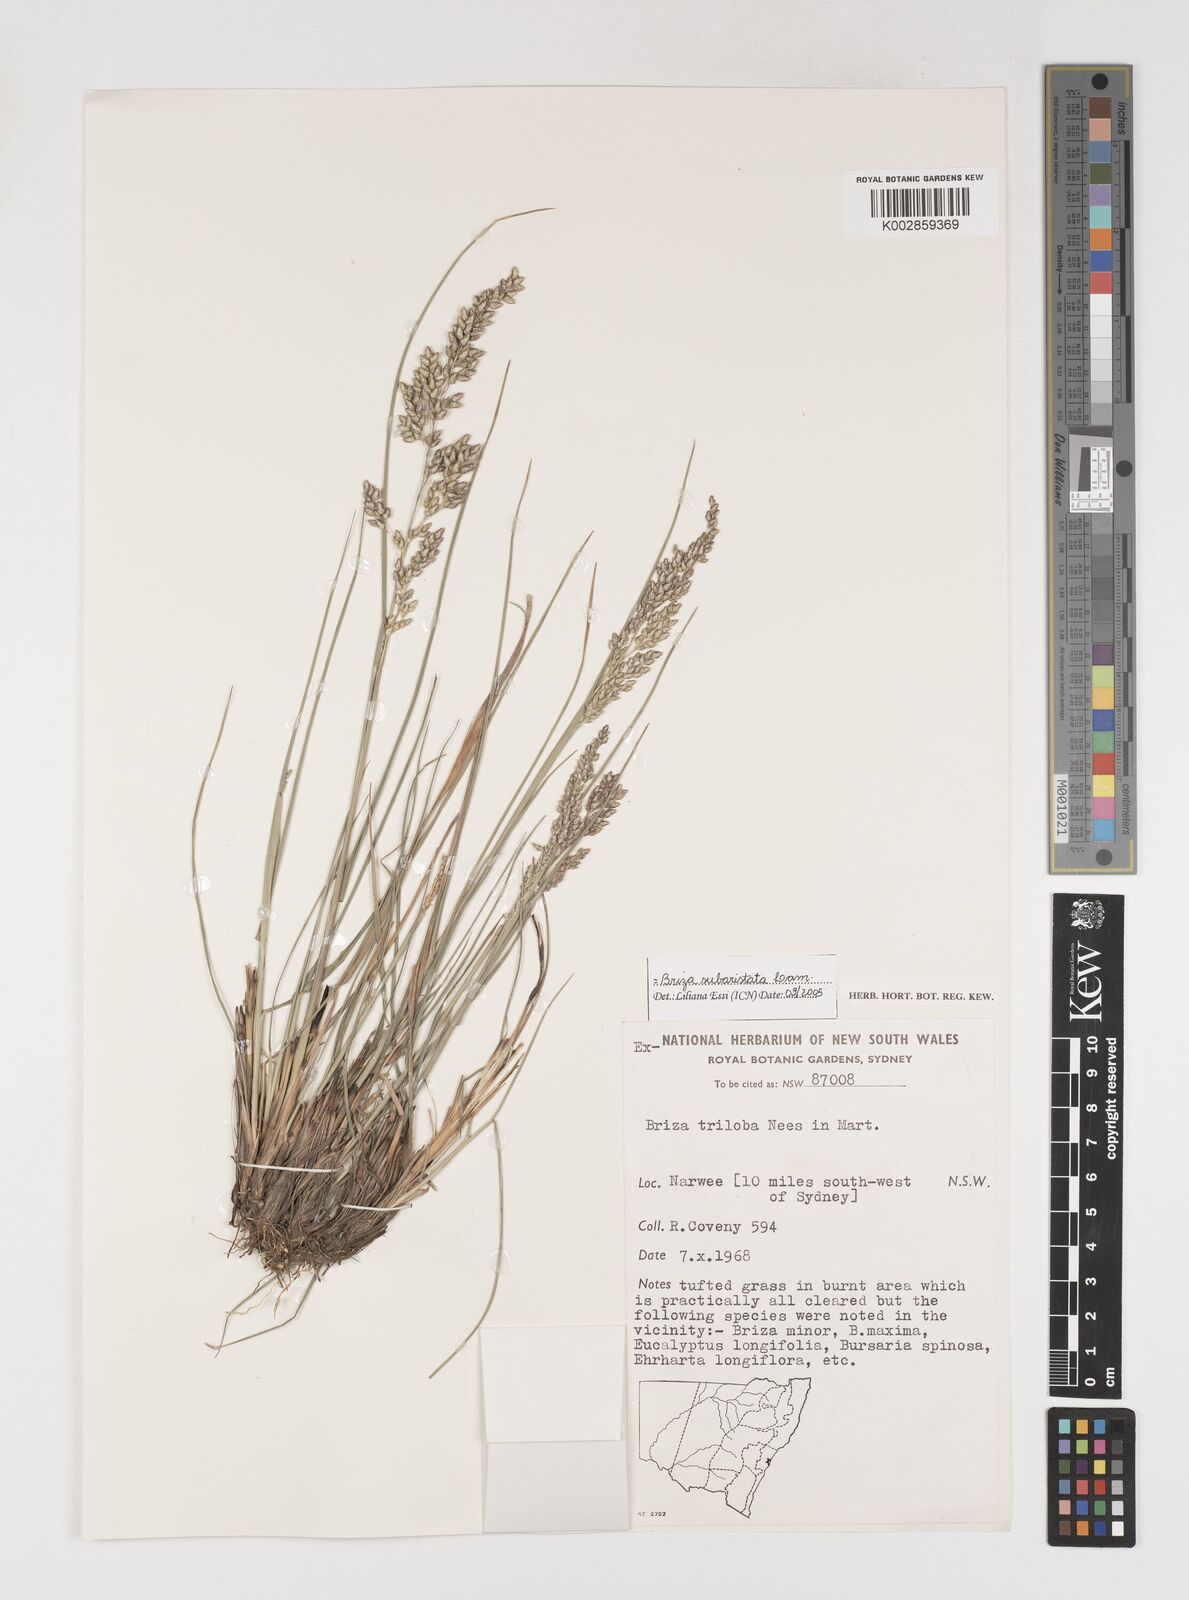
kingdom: Plantae
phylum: Tracheophyta
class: Liliopsida
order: Poales
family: Poaceae
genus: Chascolytrum
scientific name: Chascolytrum subaristatum
